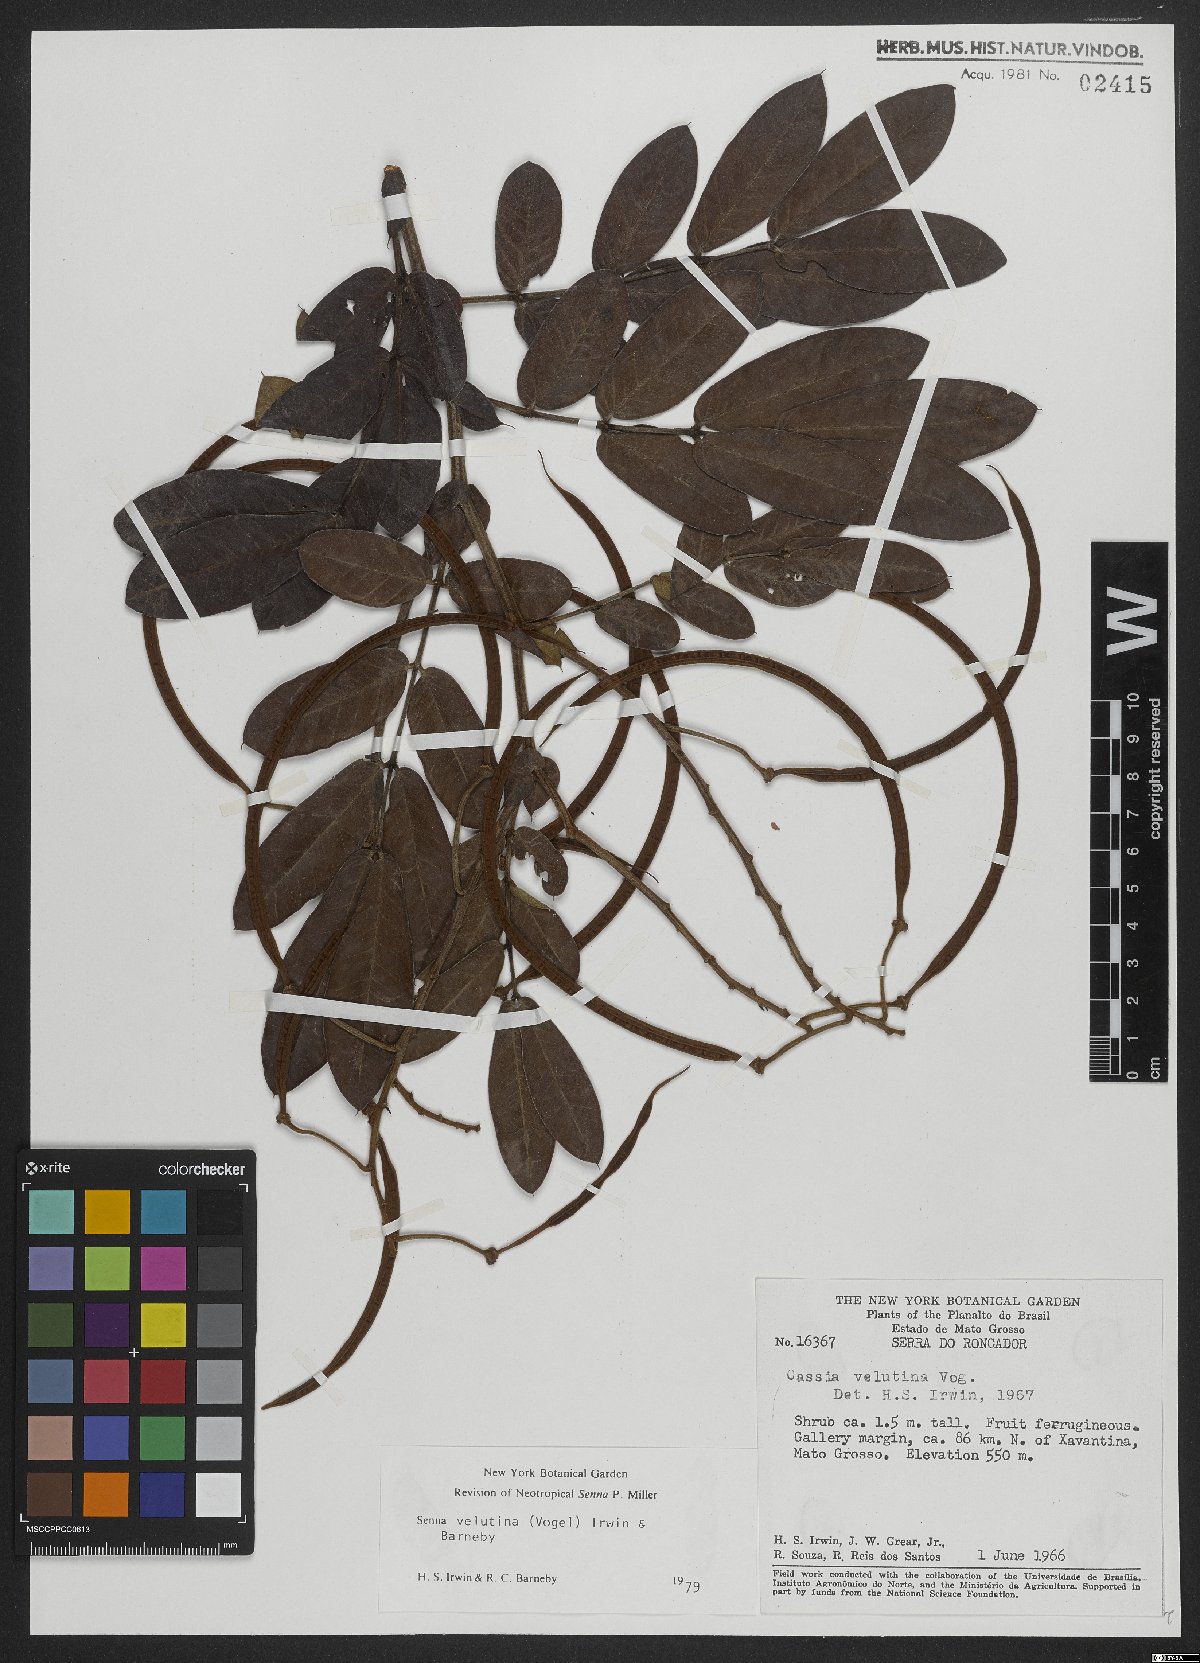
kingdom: Plantae
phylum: Tracheophyta
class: Magnoliopsida
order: Fabales
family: Fabaceae
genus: Senna
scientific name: Senna velutina
